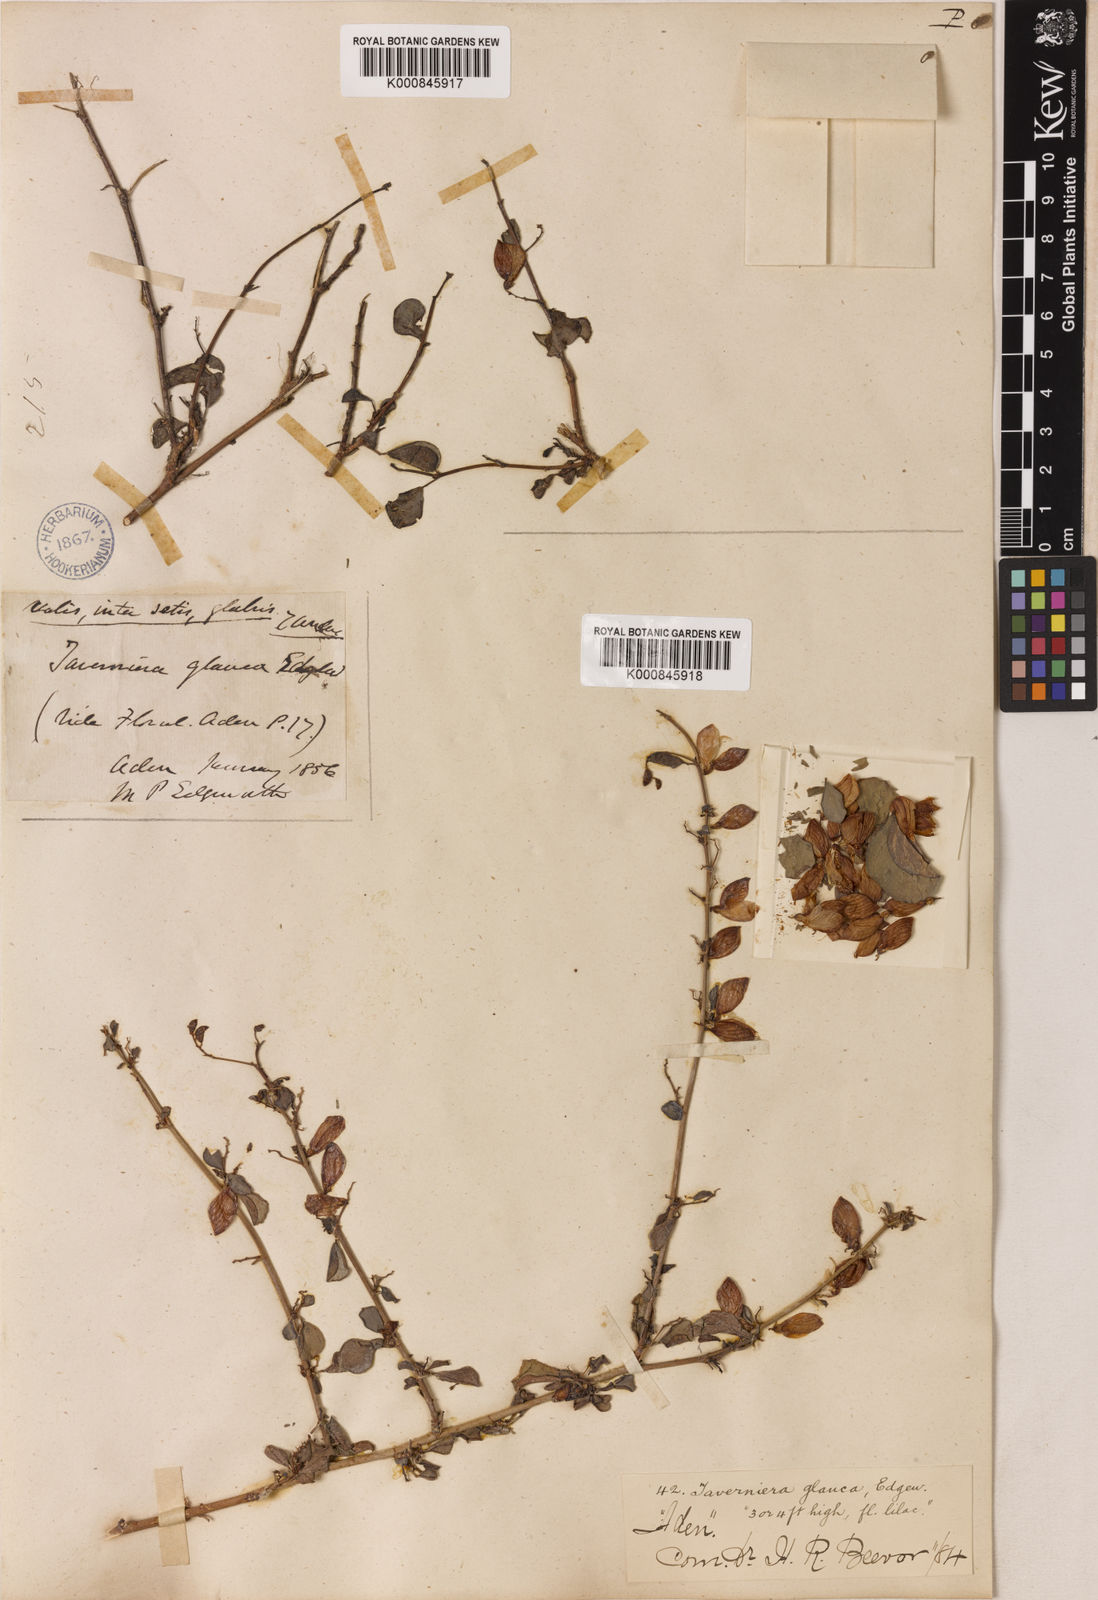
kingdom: Plantae
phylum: Tracheophyta
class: Magnoliopsida
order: Fabales
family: Fabaceae
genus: Taverniera
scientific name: Taverniera glauca
